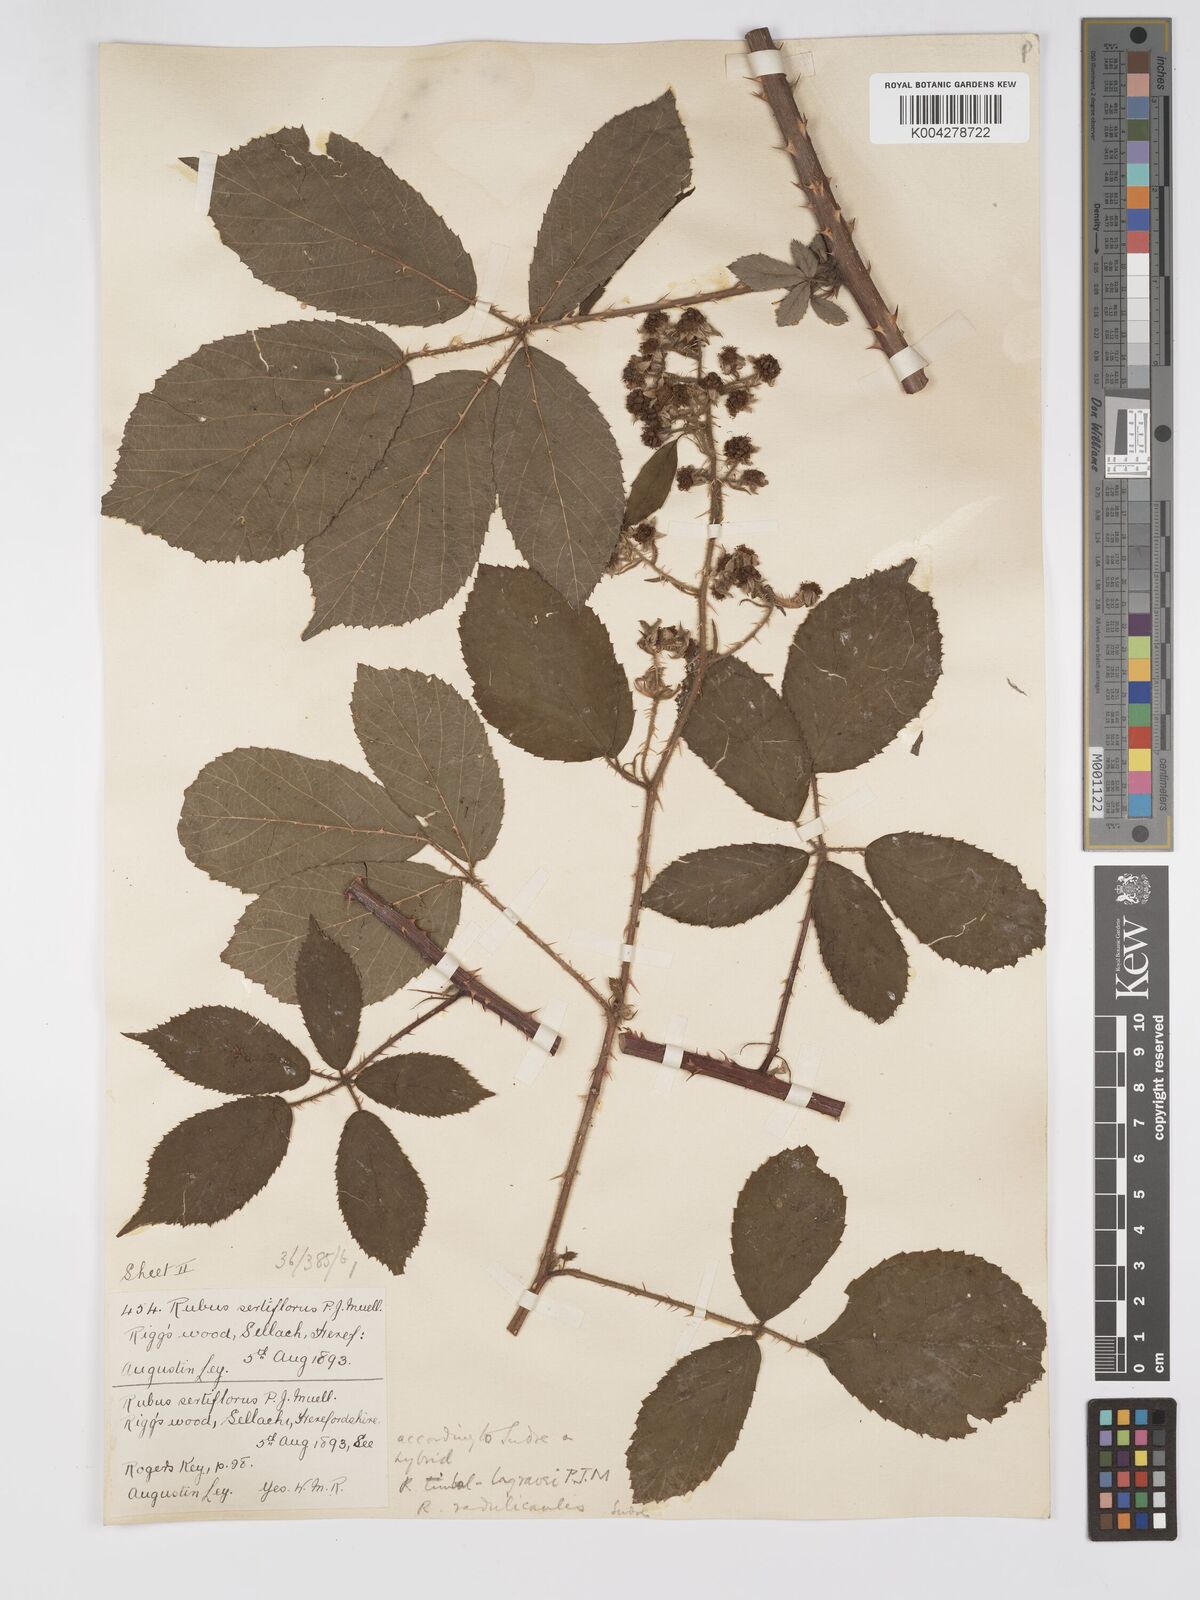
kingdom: Plantae
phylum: Tracheophyta
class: Magnoliopsida
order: Rosales
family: Rosaceae
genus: Rubus
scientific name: Rubus
